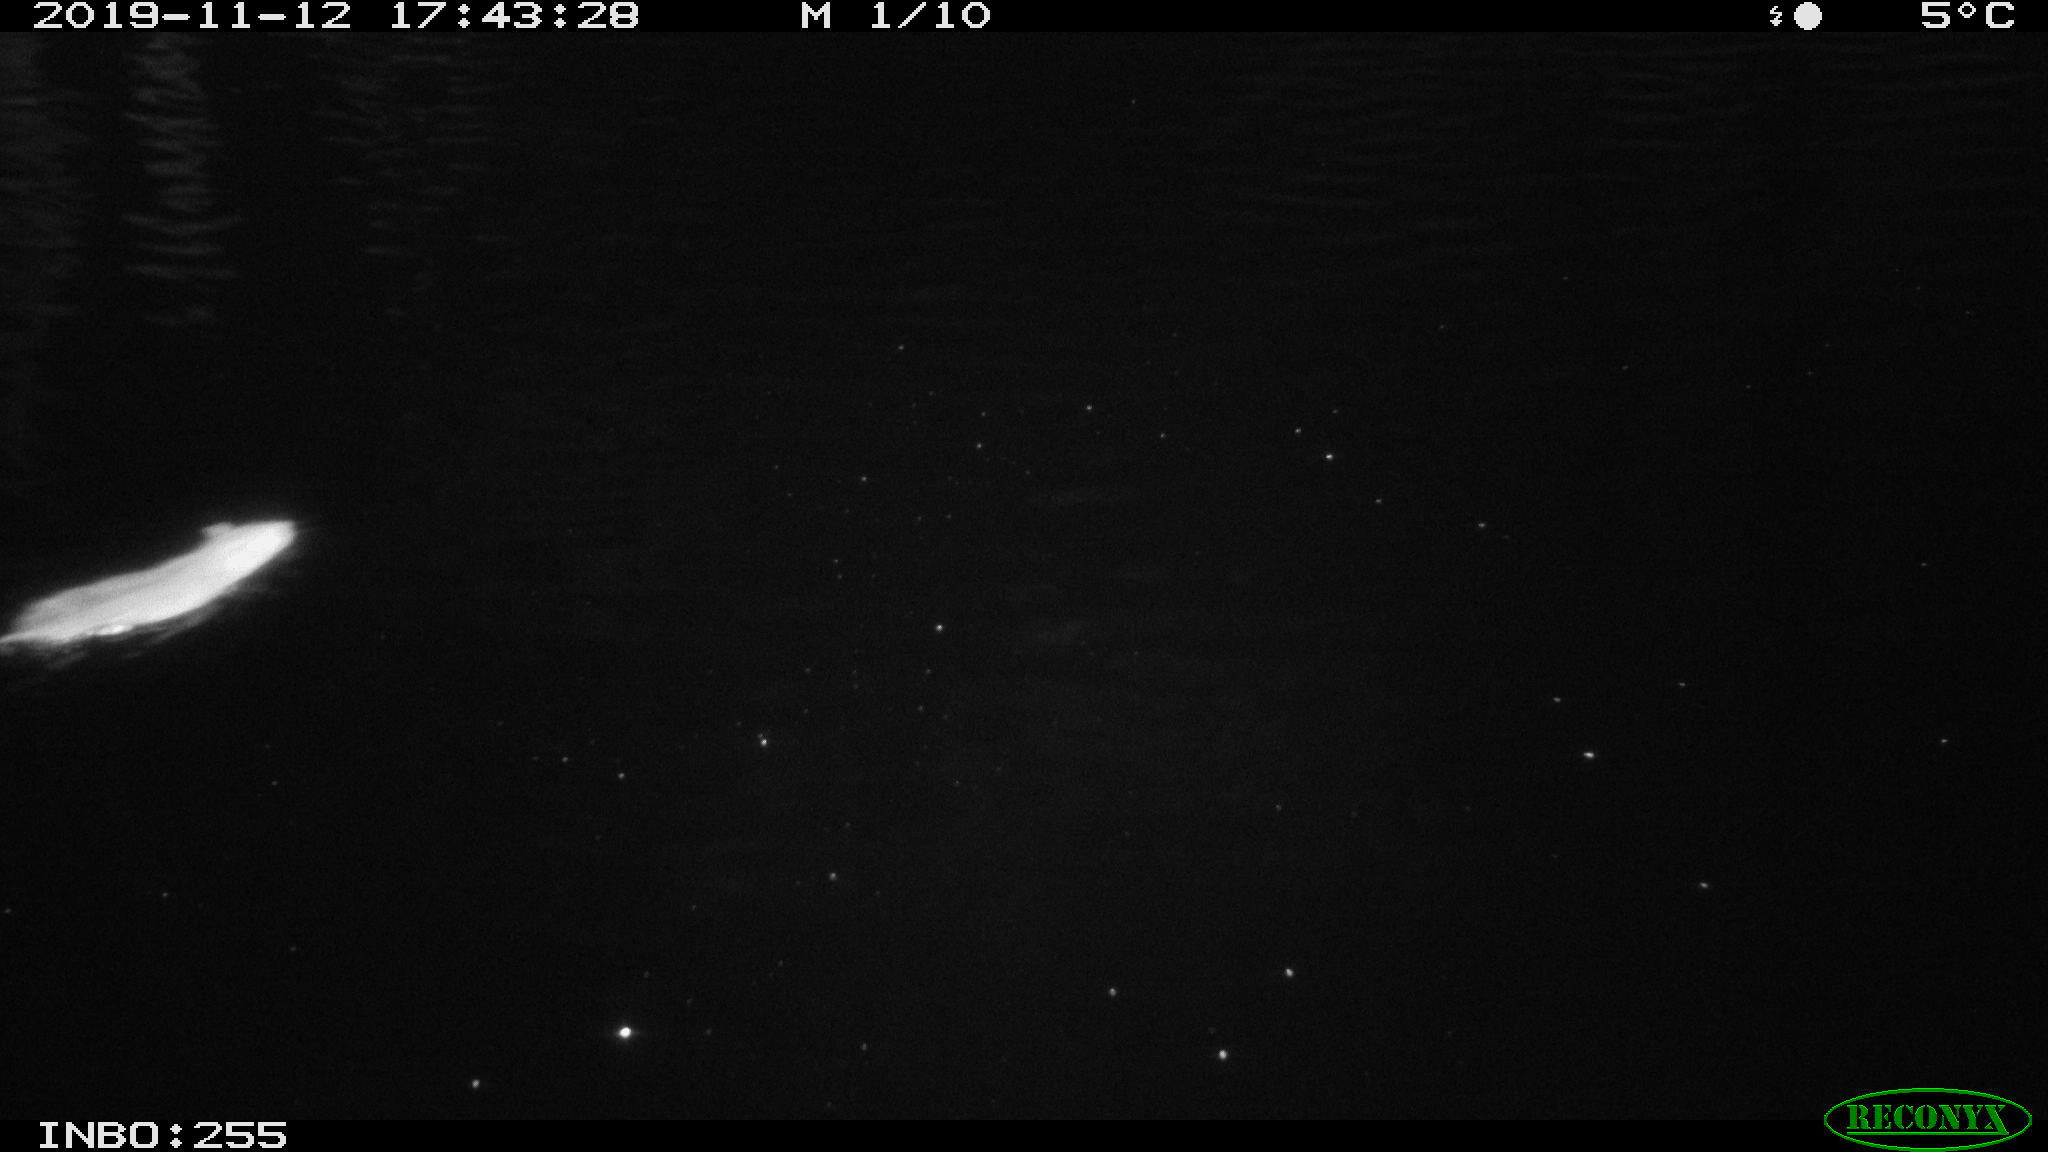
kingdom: Animalia
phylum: Chordata
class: Mammalia
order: Rodentia
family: Muridae
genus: Rattus
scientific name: Rattus norvegicus
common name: Brown rat
